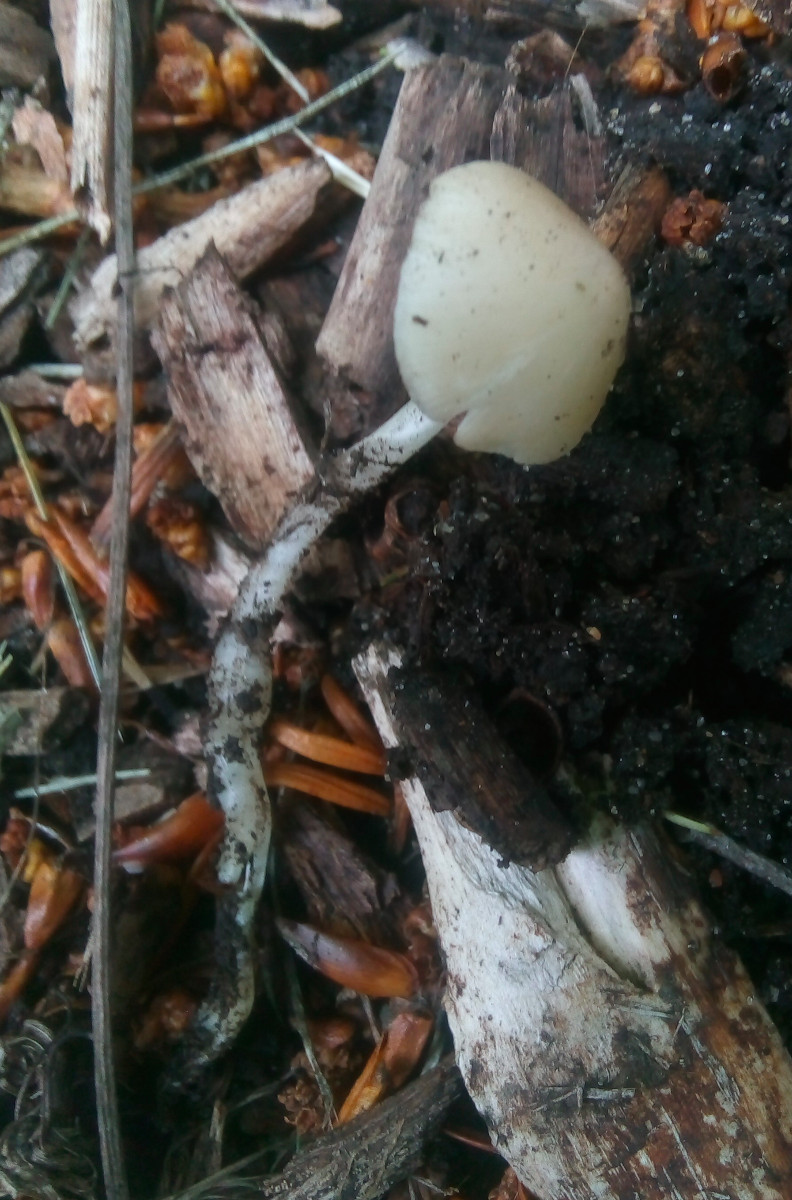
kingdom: Fungi
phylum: Basidiomycota
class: Agaricomycetes
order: Agaricales
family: Porotheleaceae
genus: Hydropodia
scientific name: Hydropodia subalpina
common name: vår-fnugfod
